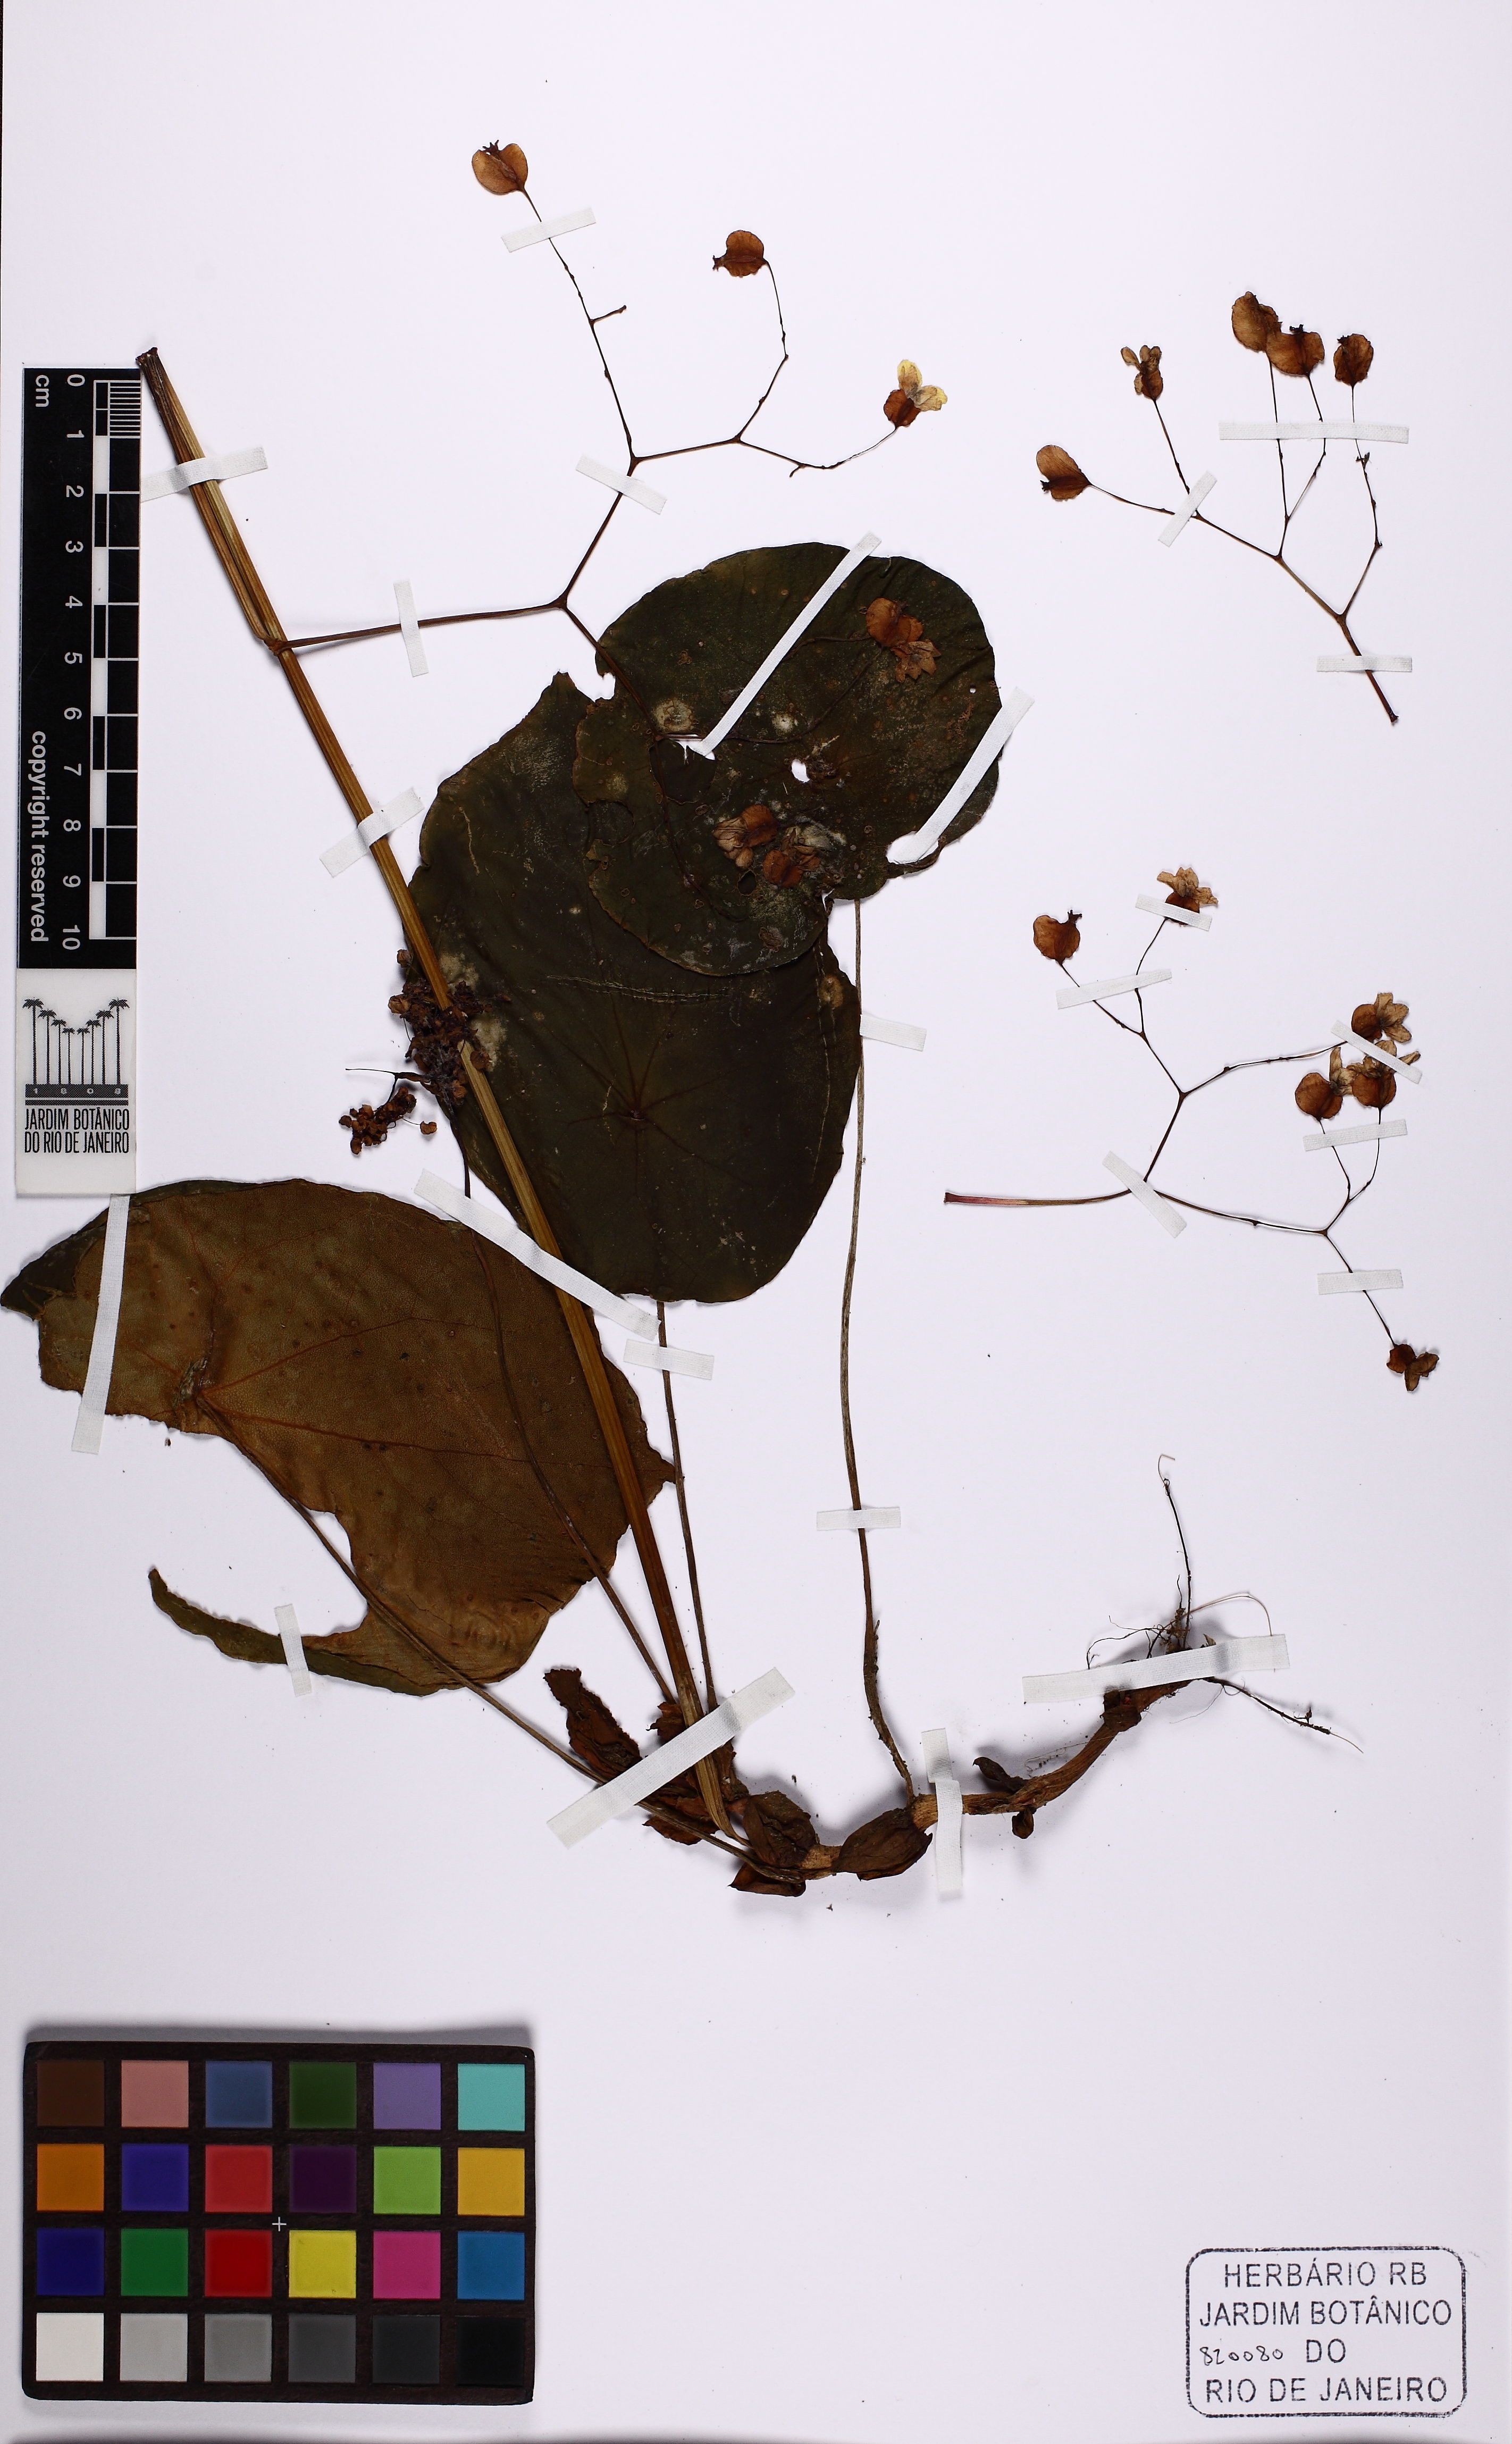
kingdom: Plantae
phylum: Tracheophyta
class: Magnoliopsida
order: Cucurbitales
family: Begoniaceae
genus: Begonia
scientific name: Begonia
